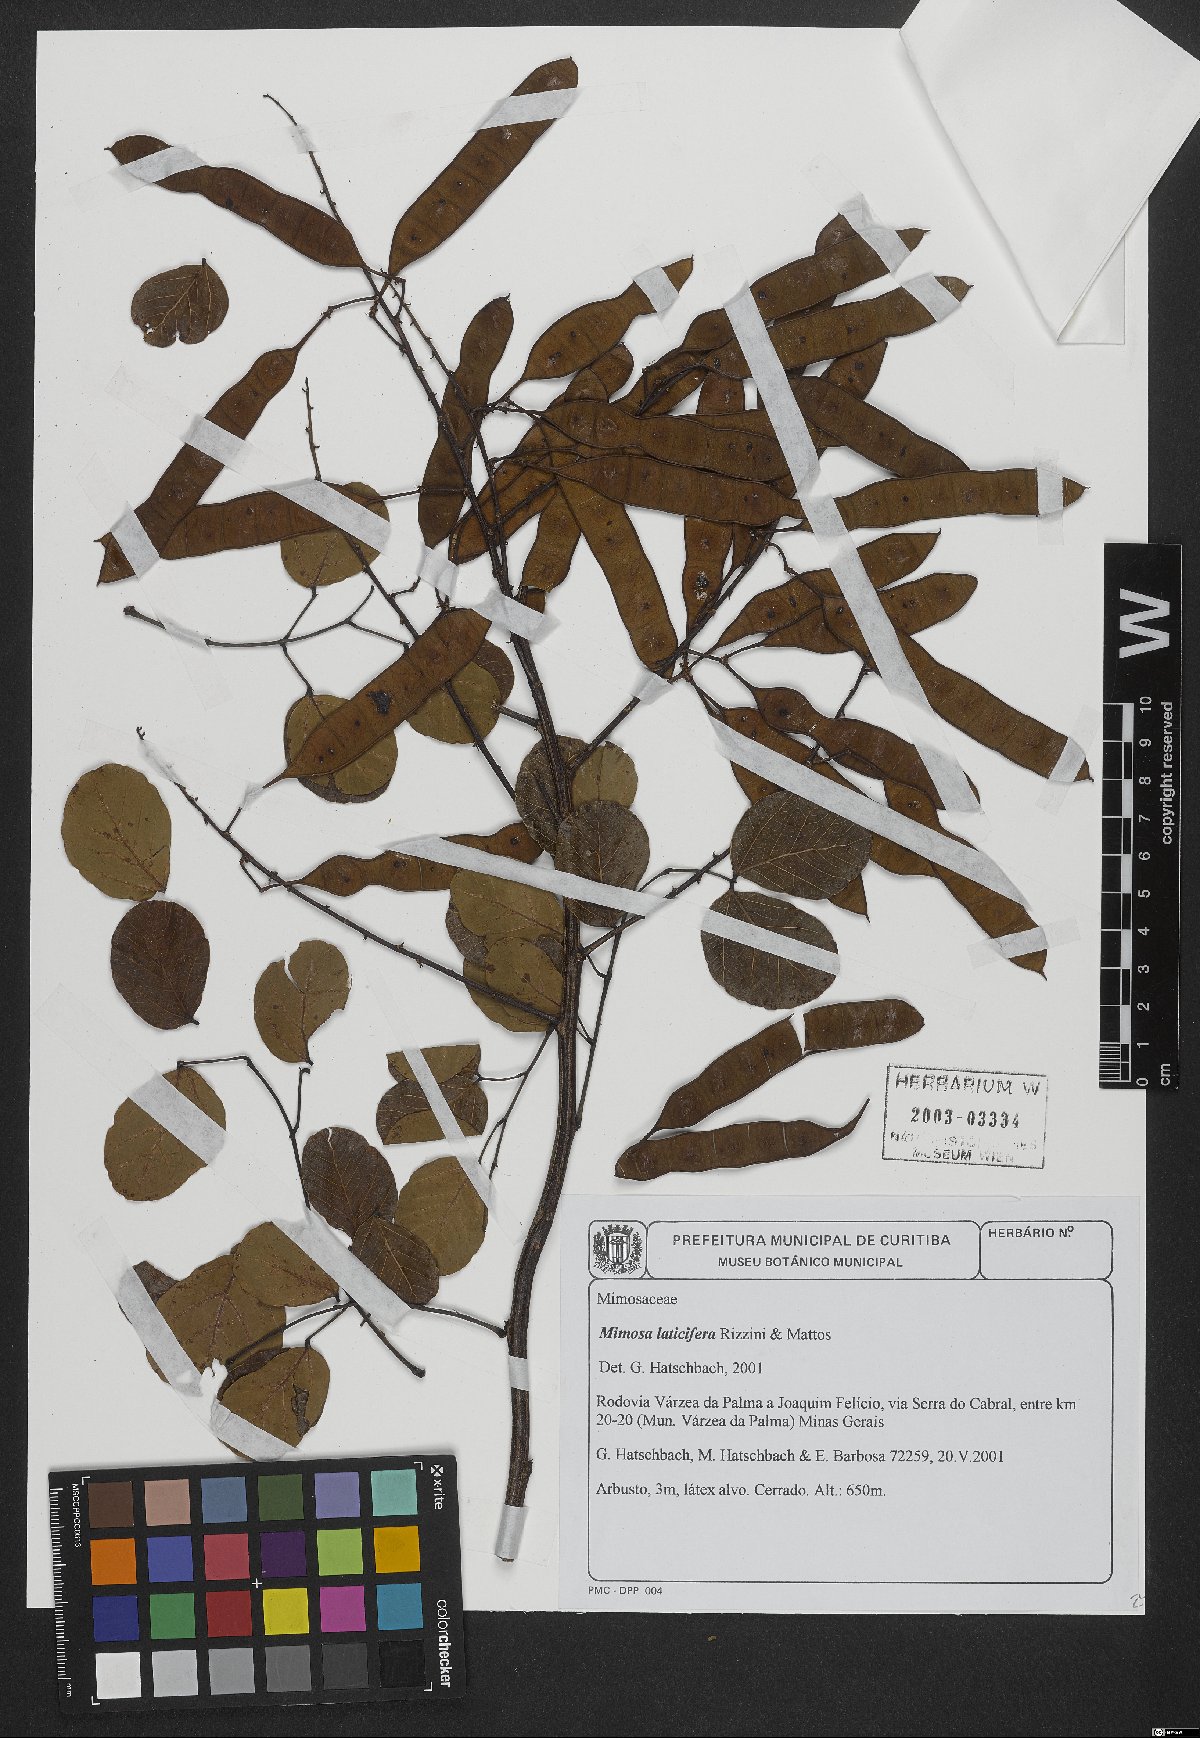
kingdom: Plantae
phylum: Tracheophyta
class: Magnoliopsida
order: Fabales
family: Fabaceae
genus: Mimosa
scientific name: Mimosa laticifera
